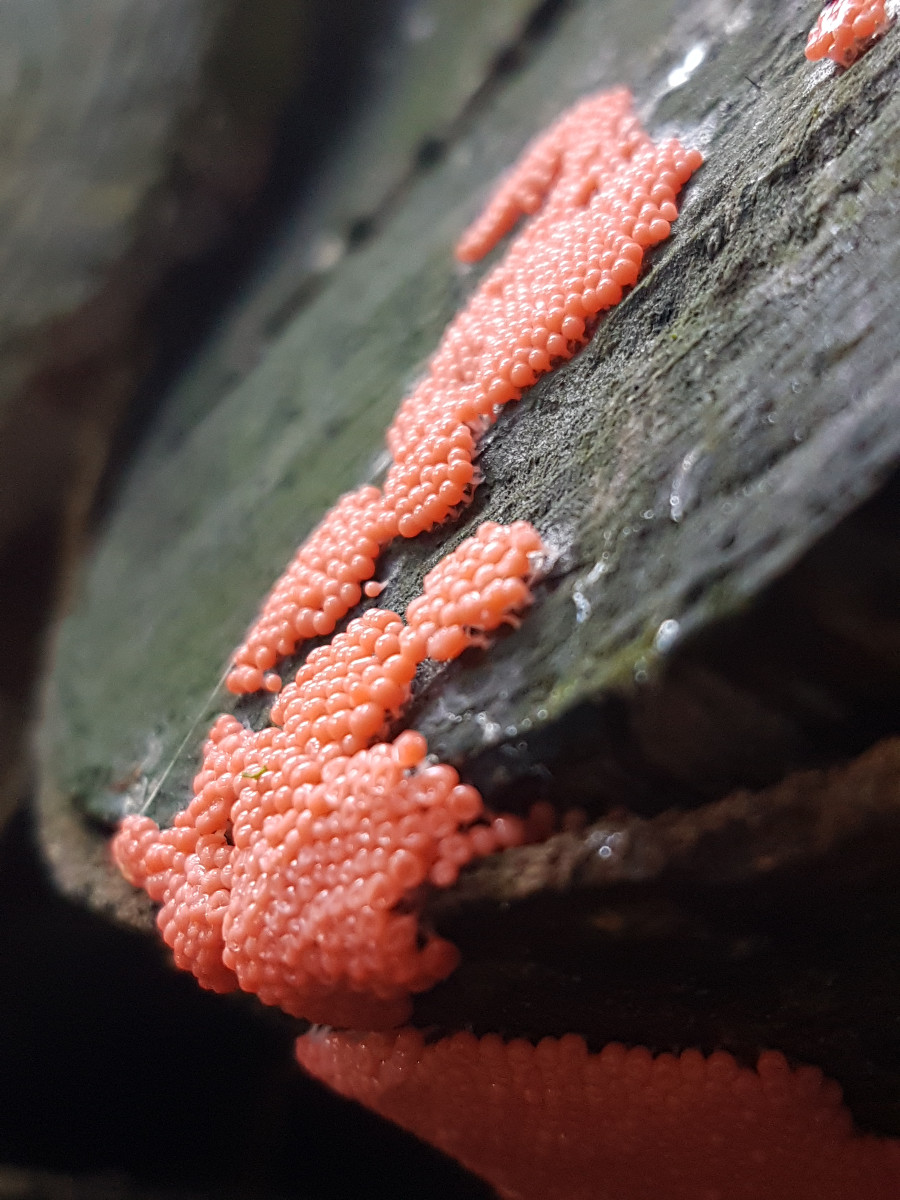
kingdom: Protozoa
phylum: Amoebozoa
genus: Arcyria
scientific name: Arcyria
